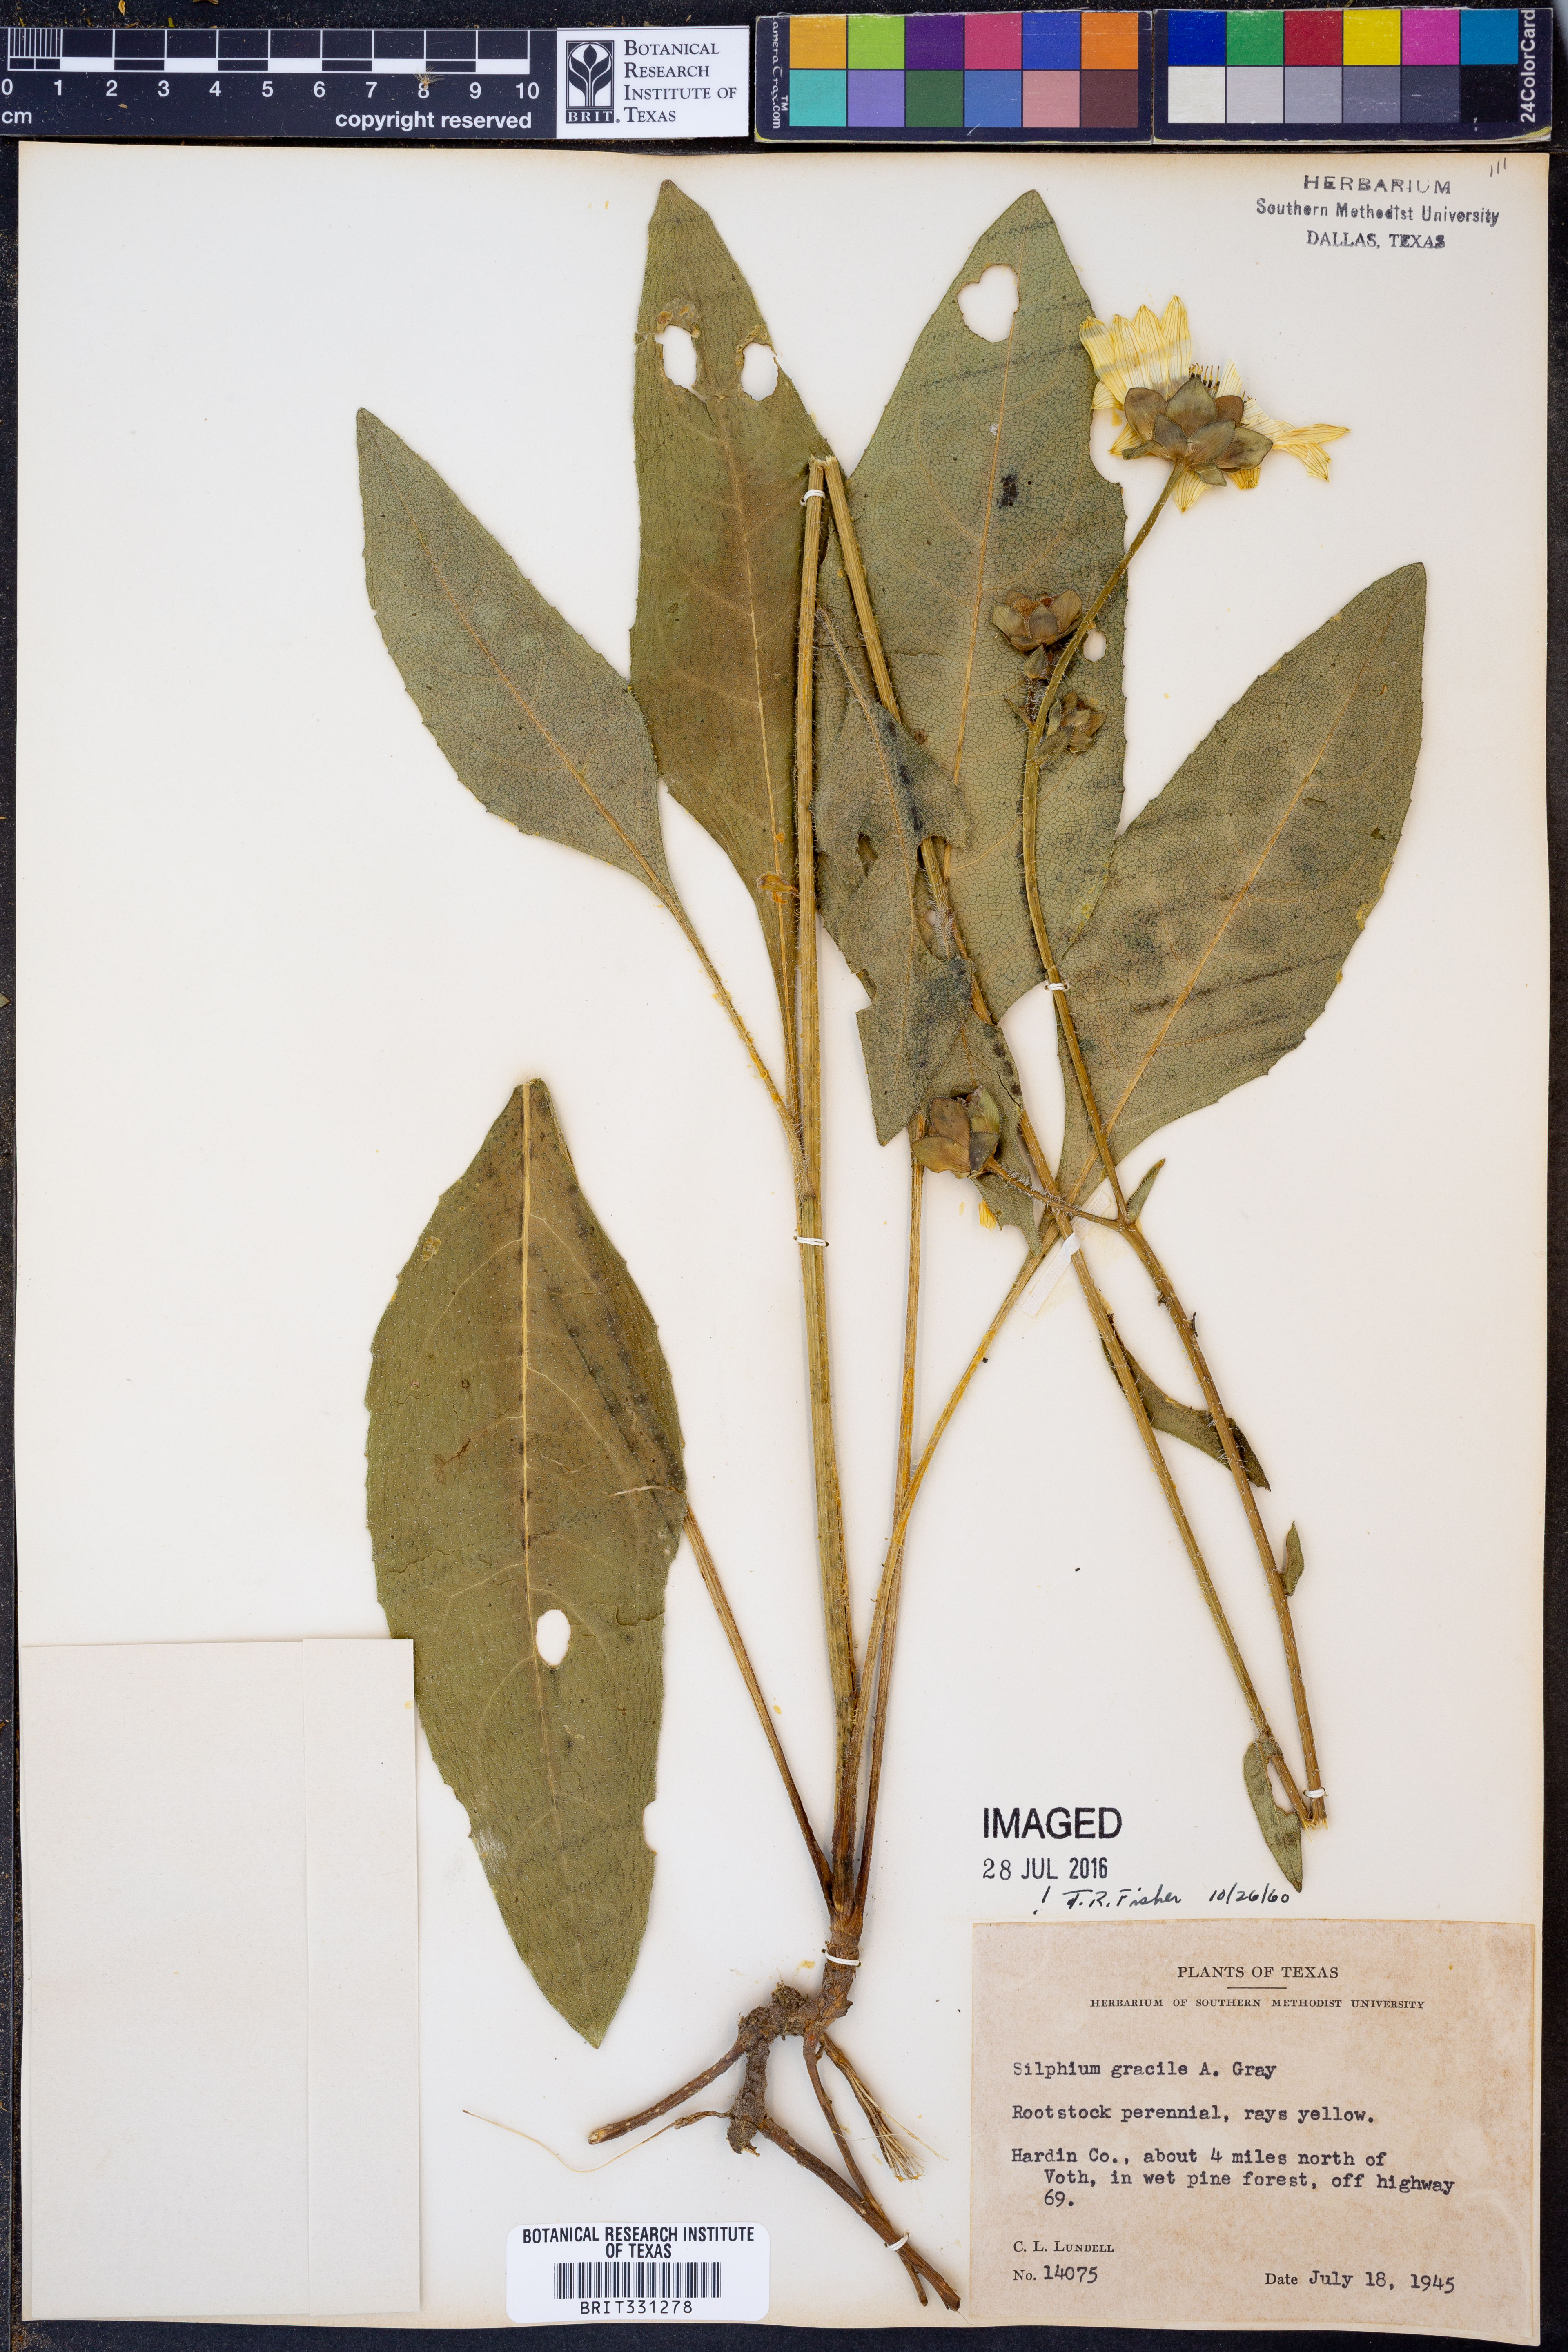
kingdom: Plantae
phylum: Tracheophyta
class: Magnoliopsida
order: Asterales
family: Asteraceae
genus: Silphium
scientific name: Silphium radula
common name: Roughleaf rosinweed
